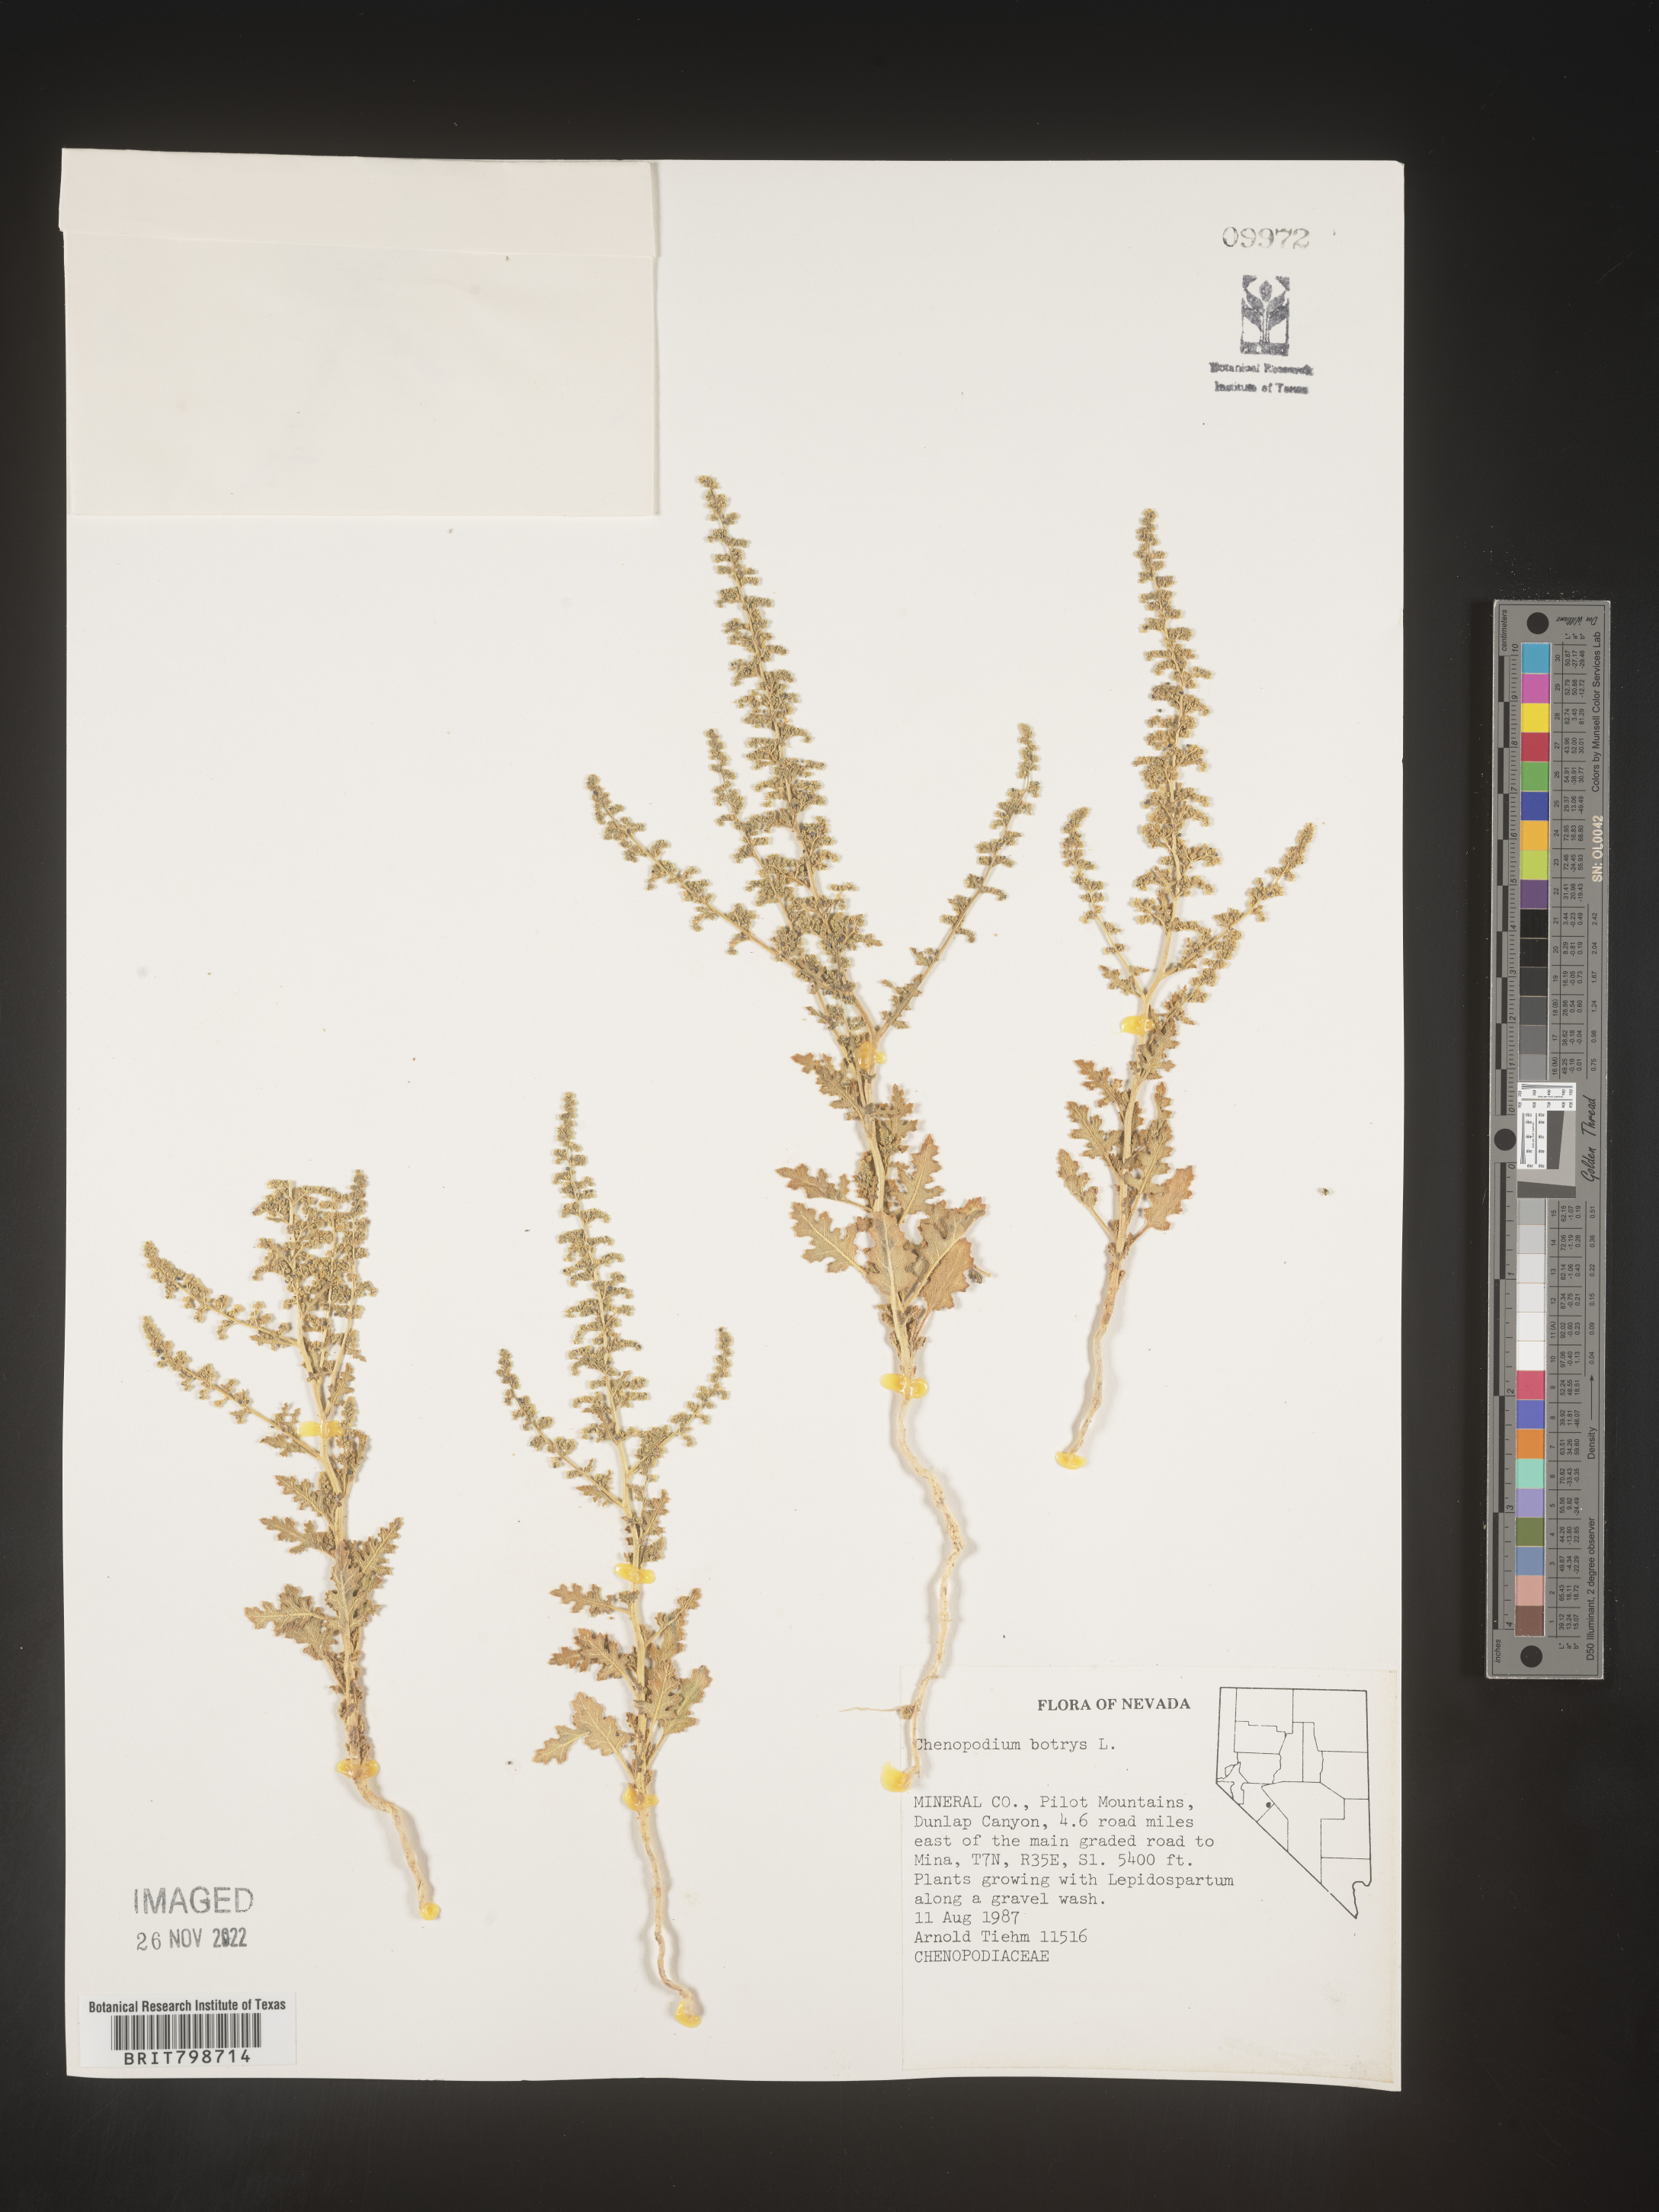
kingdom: Plantae
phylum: Tracheophyta
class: Magnoliopsida
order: Caryophyllales
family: Amaranthaceae
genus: Dysphania
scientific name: Dysphania botrys
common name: Feather-geranium
